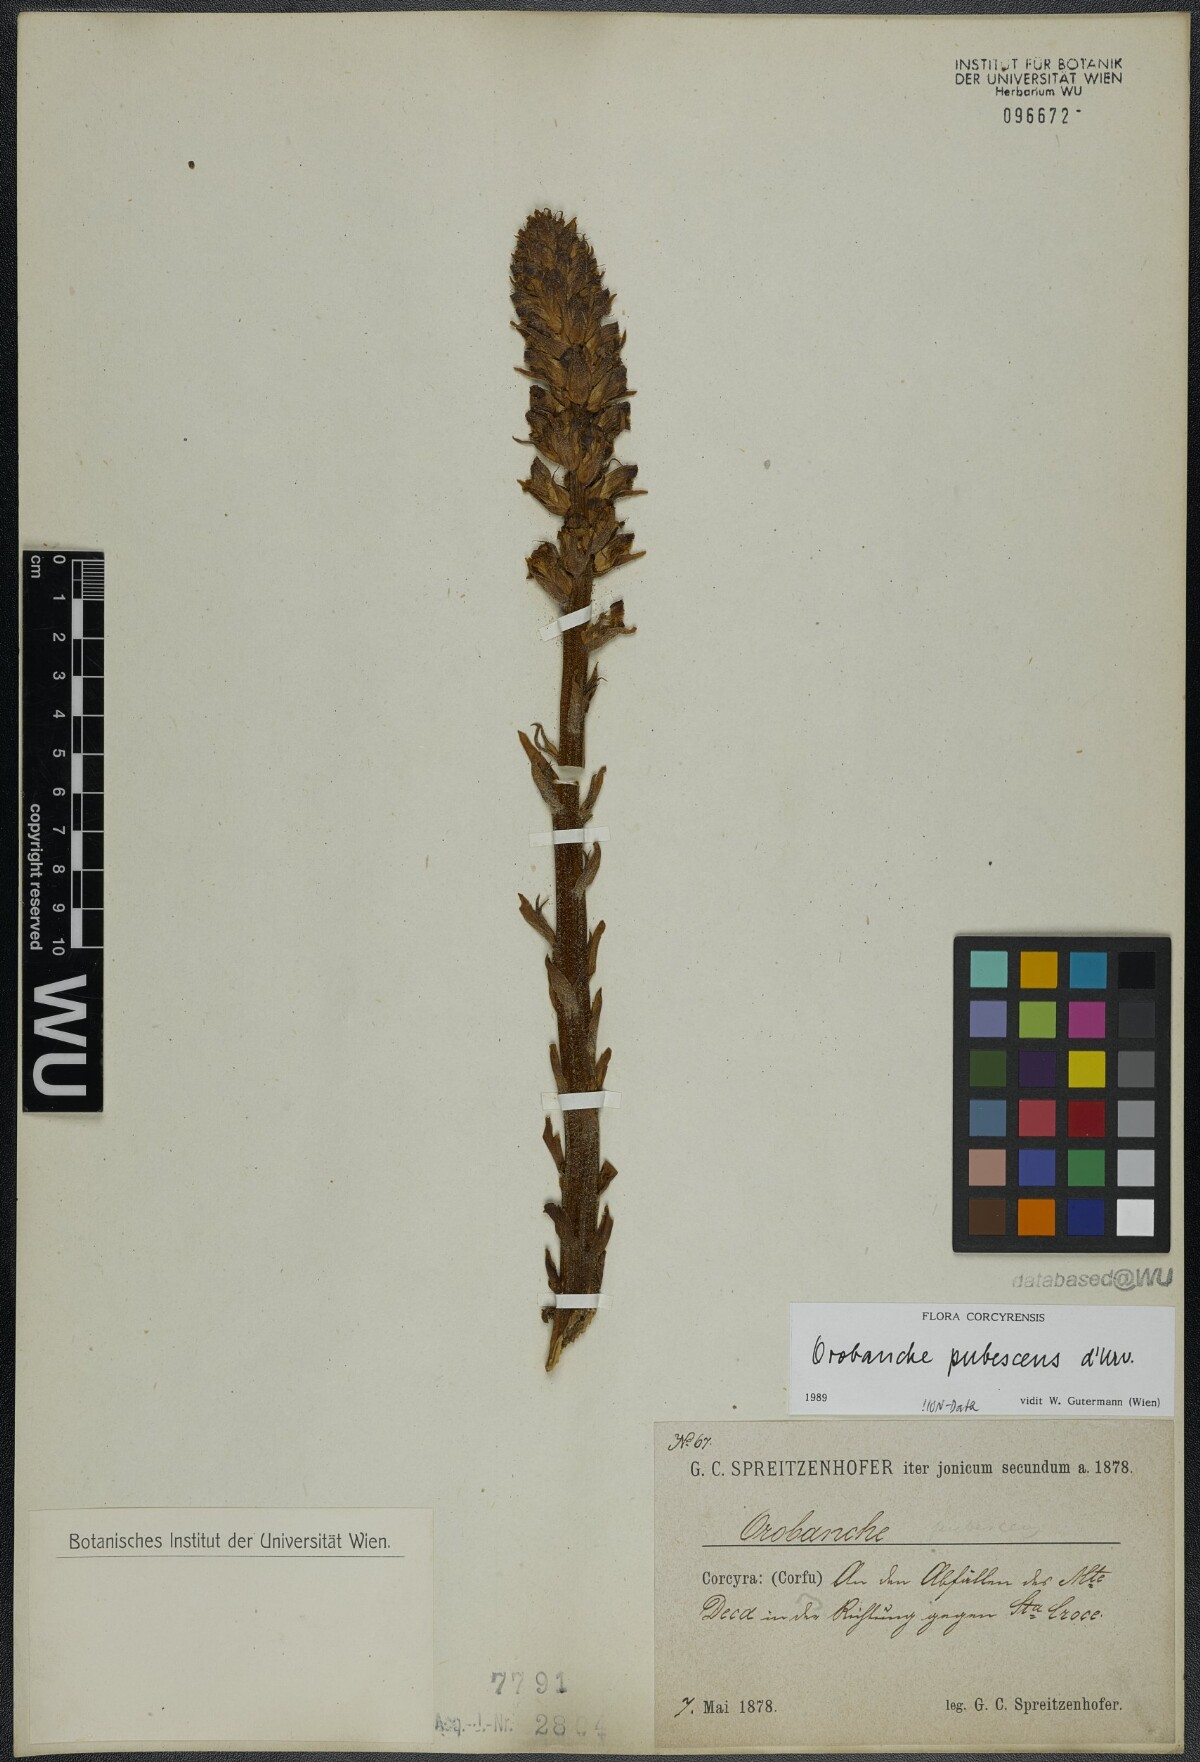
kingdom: Plantae
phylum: Tracheophyta
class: Magnoliopsida
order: Lamiales
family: Orobanchaceae
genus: Orobanche
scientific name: Orobanche pubescens
